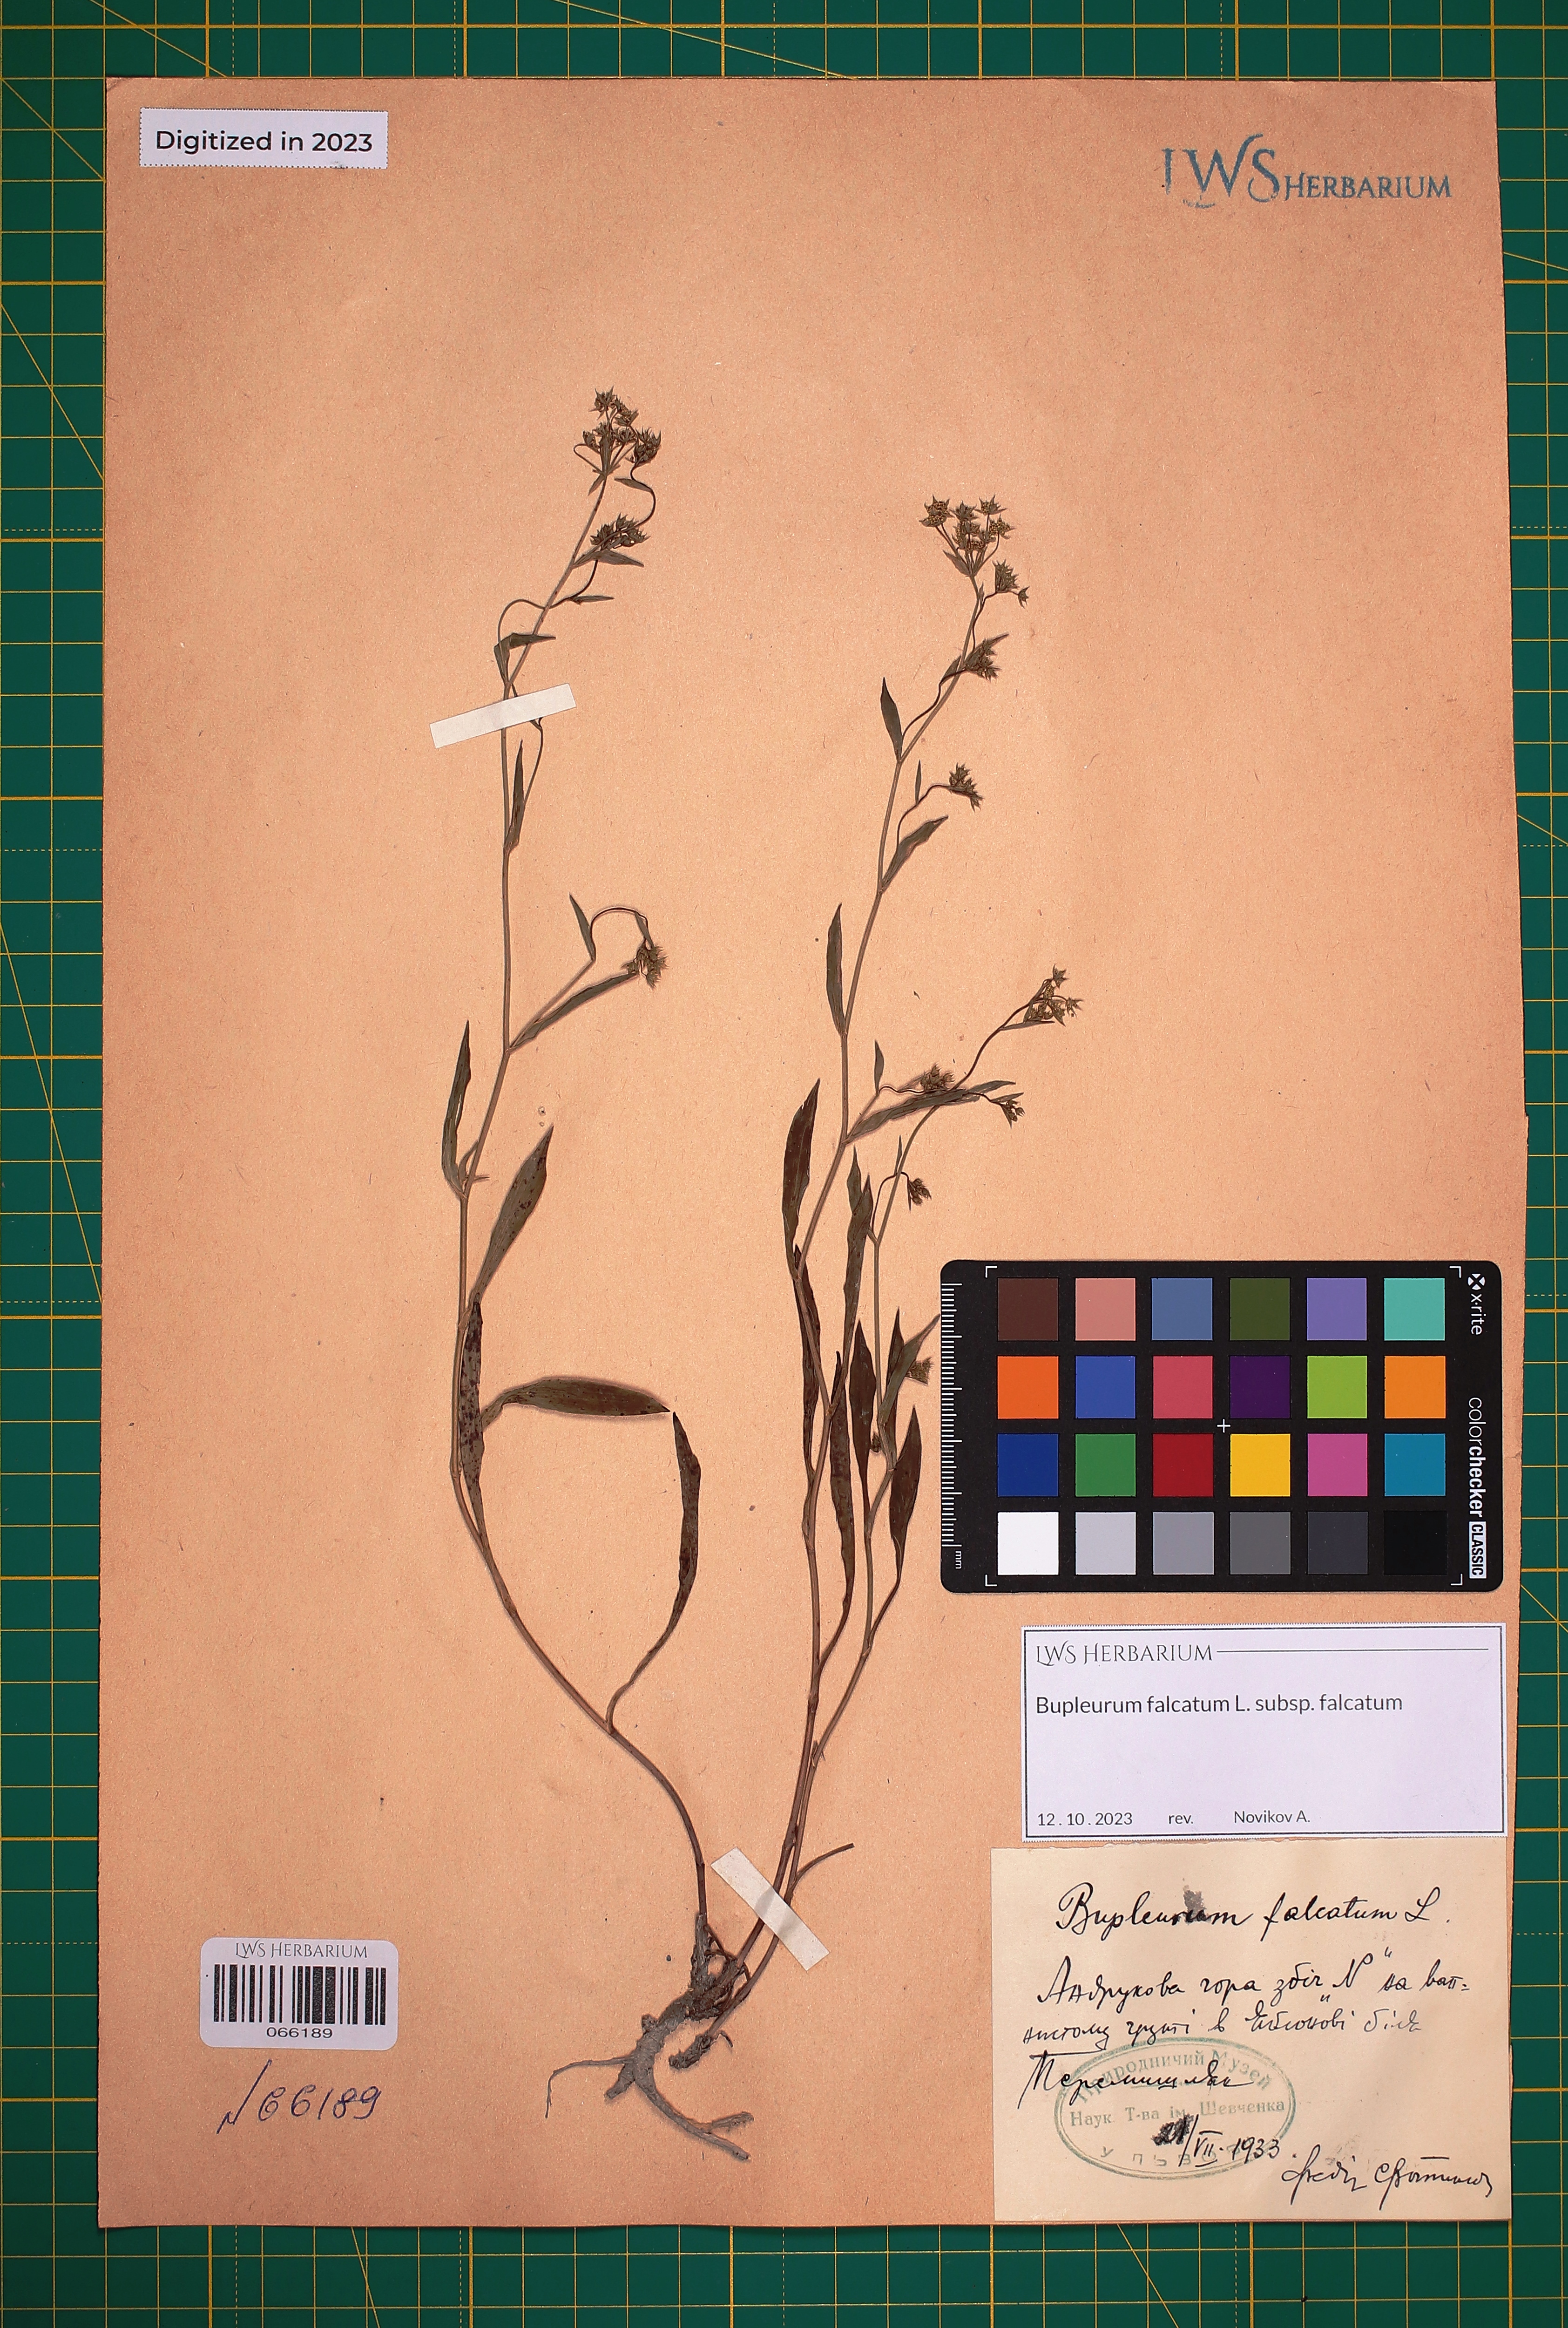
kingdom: Plantae
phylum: Tracheophyta
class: Magnoliopsida
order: Apiales
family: Apiaceae
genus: Bupleurum
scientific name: Bupleurum falcatum
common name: Sickle-leaved hare's-ear
